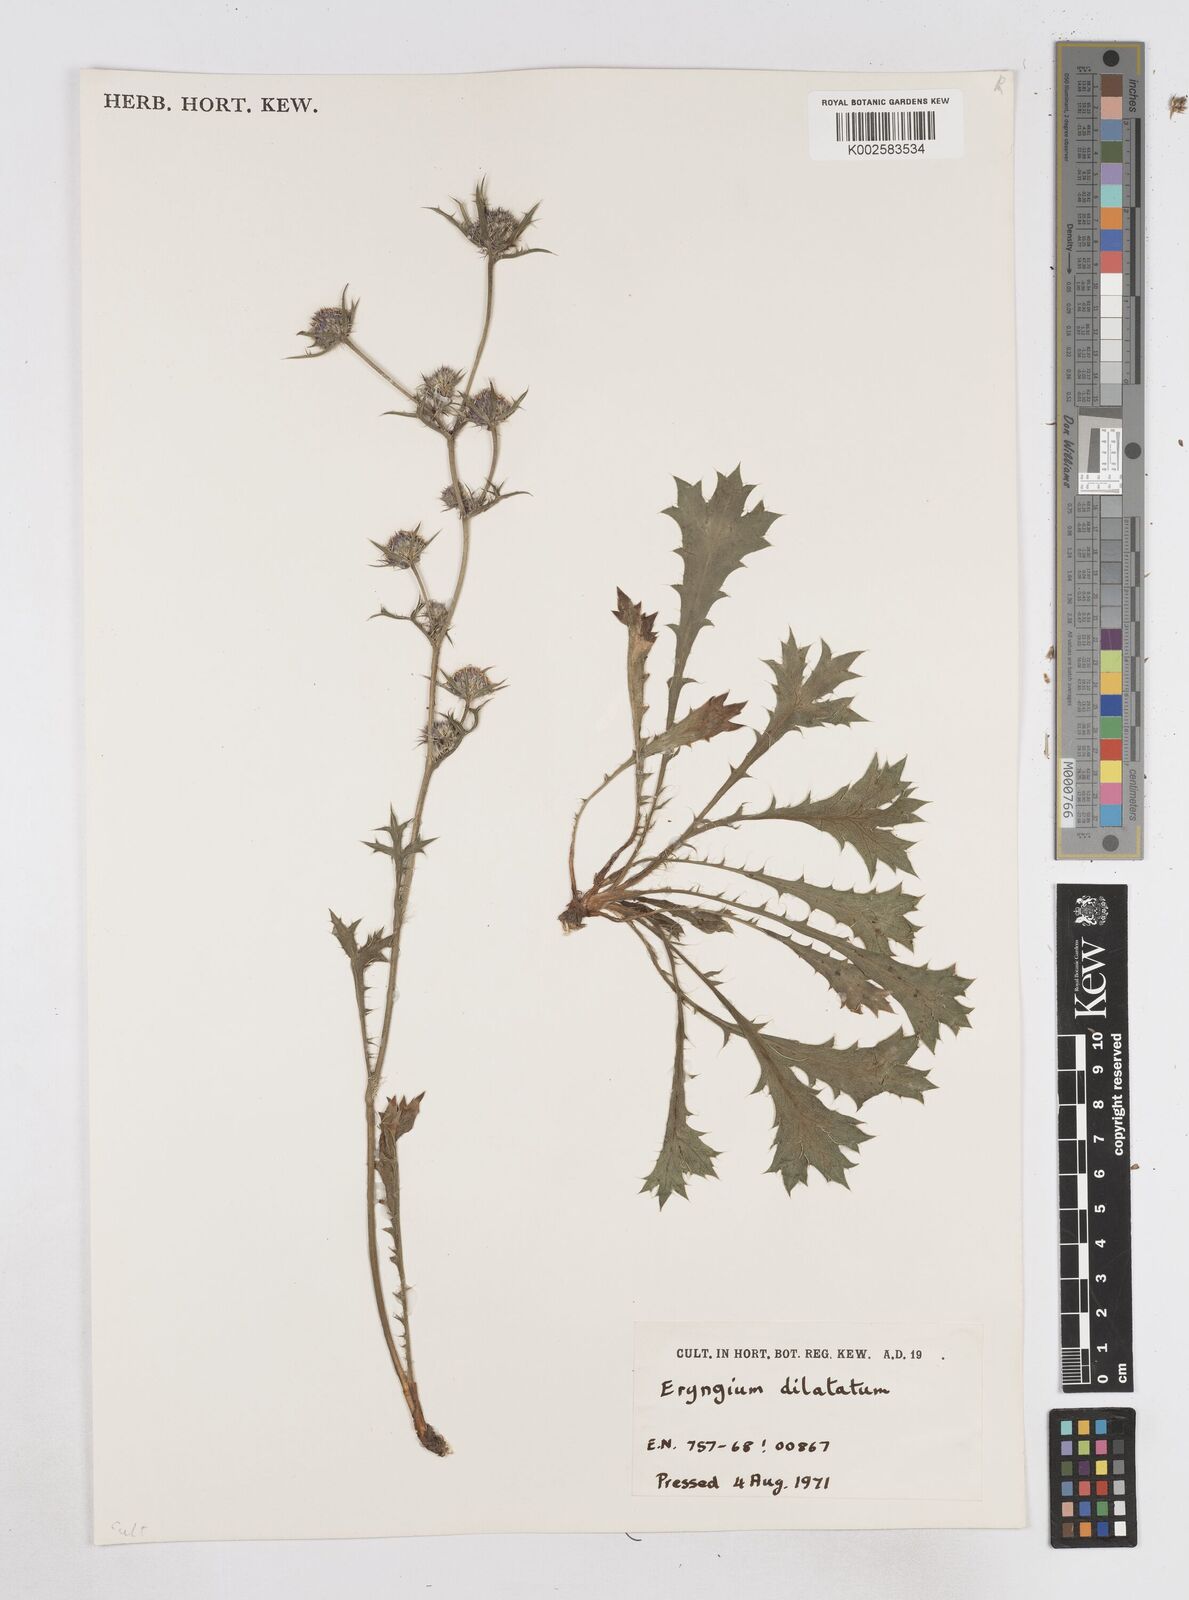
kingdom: Plantae
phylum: Tracheophyta
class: Magnoliopsida
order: Apiales
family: Apiaceae
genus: Eryngium
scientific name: Eryngium
